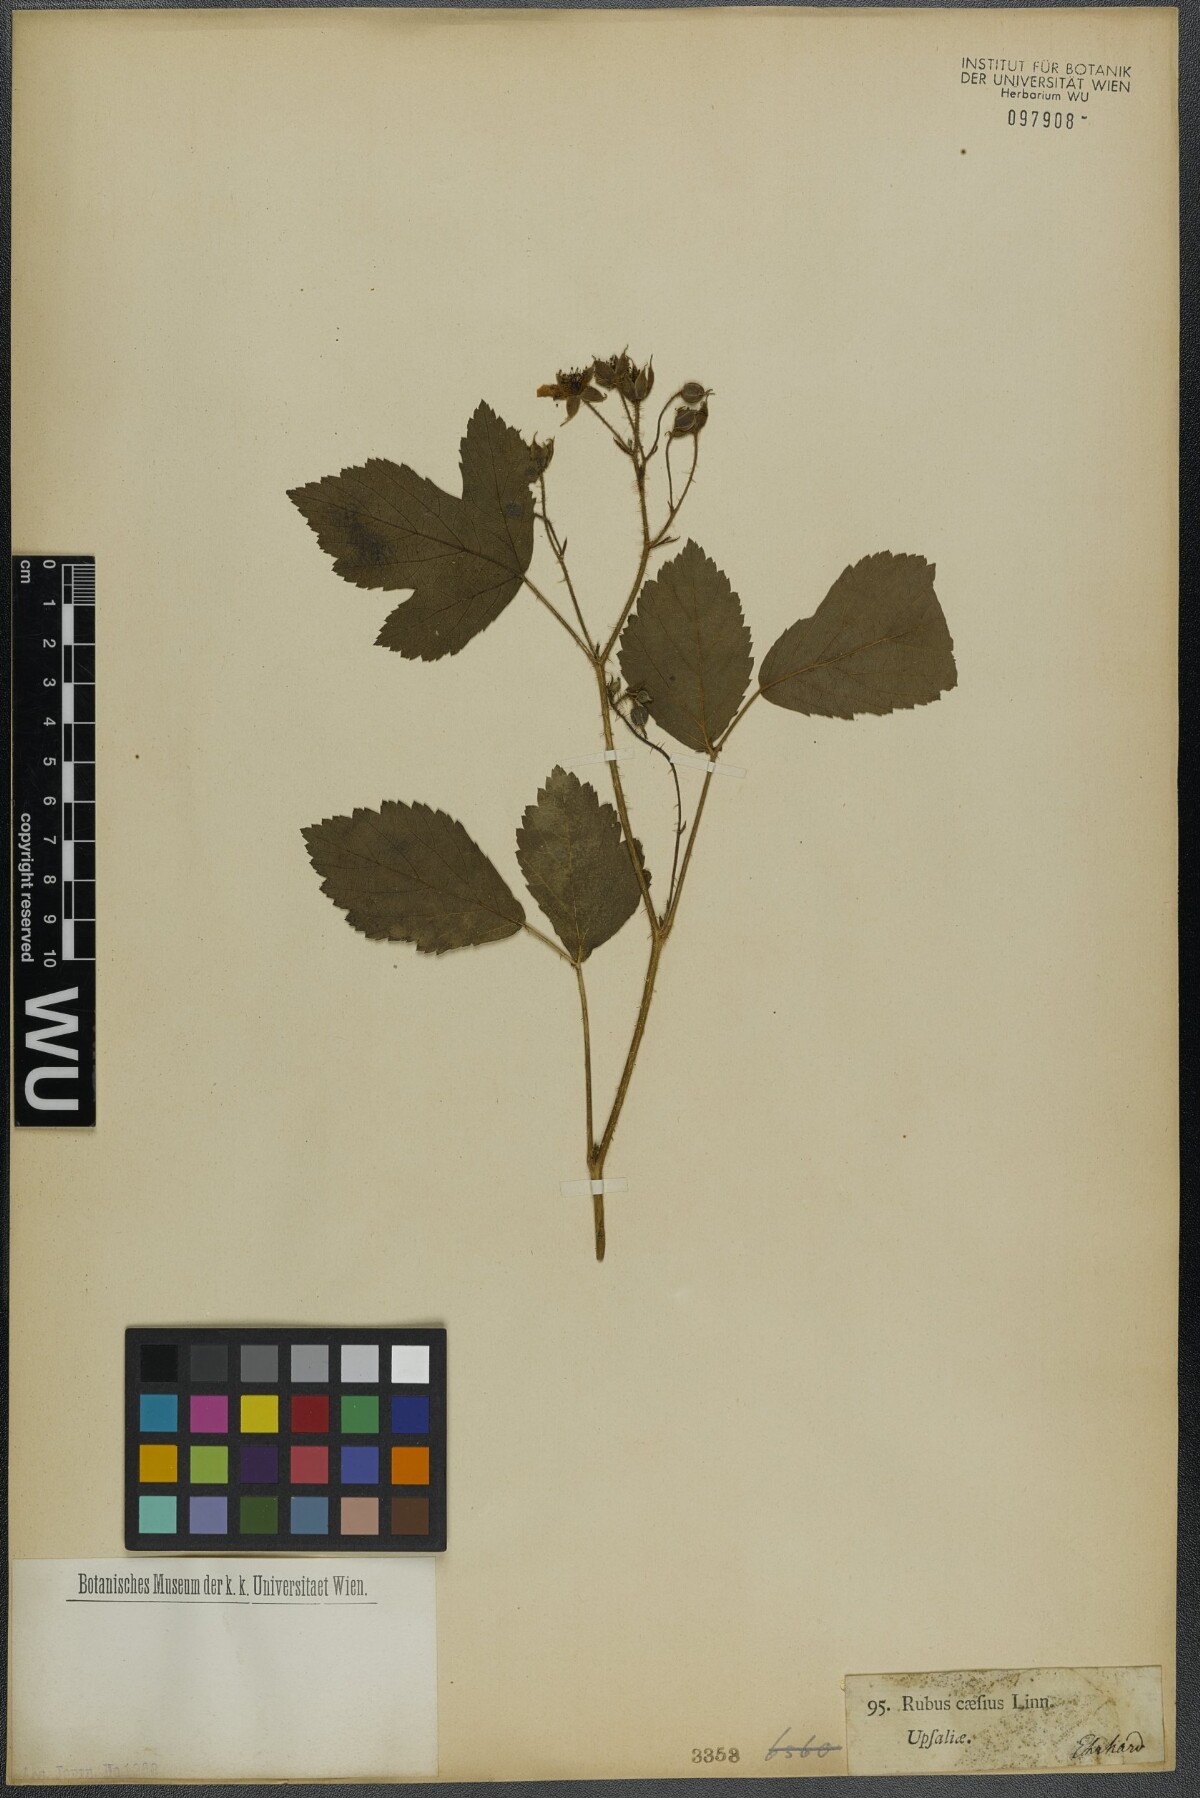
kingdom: Plantae
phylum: Tracheophyta
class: Magnoliopsida
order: Rosales
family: Rosaceae
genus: Rubus
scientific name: Rubus caesius
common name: Dewberry
